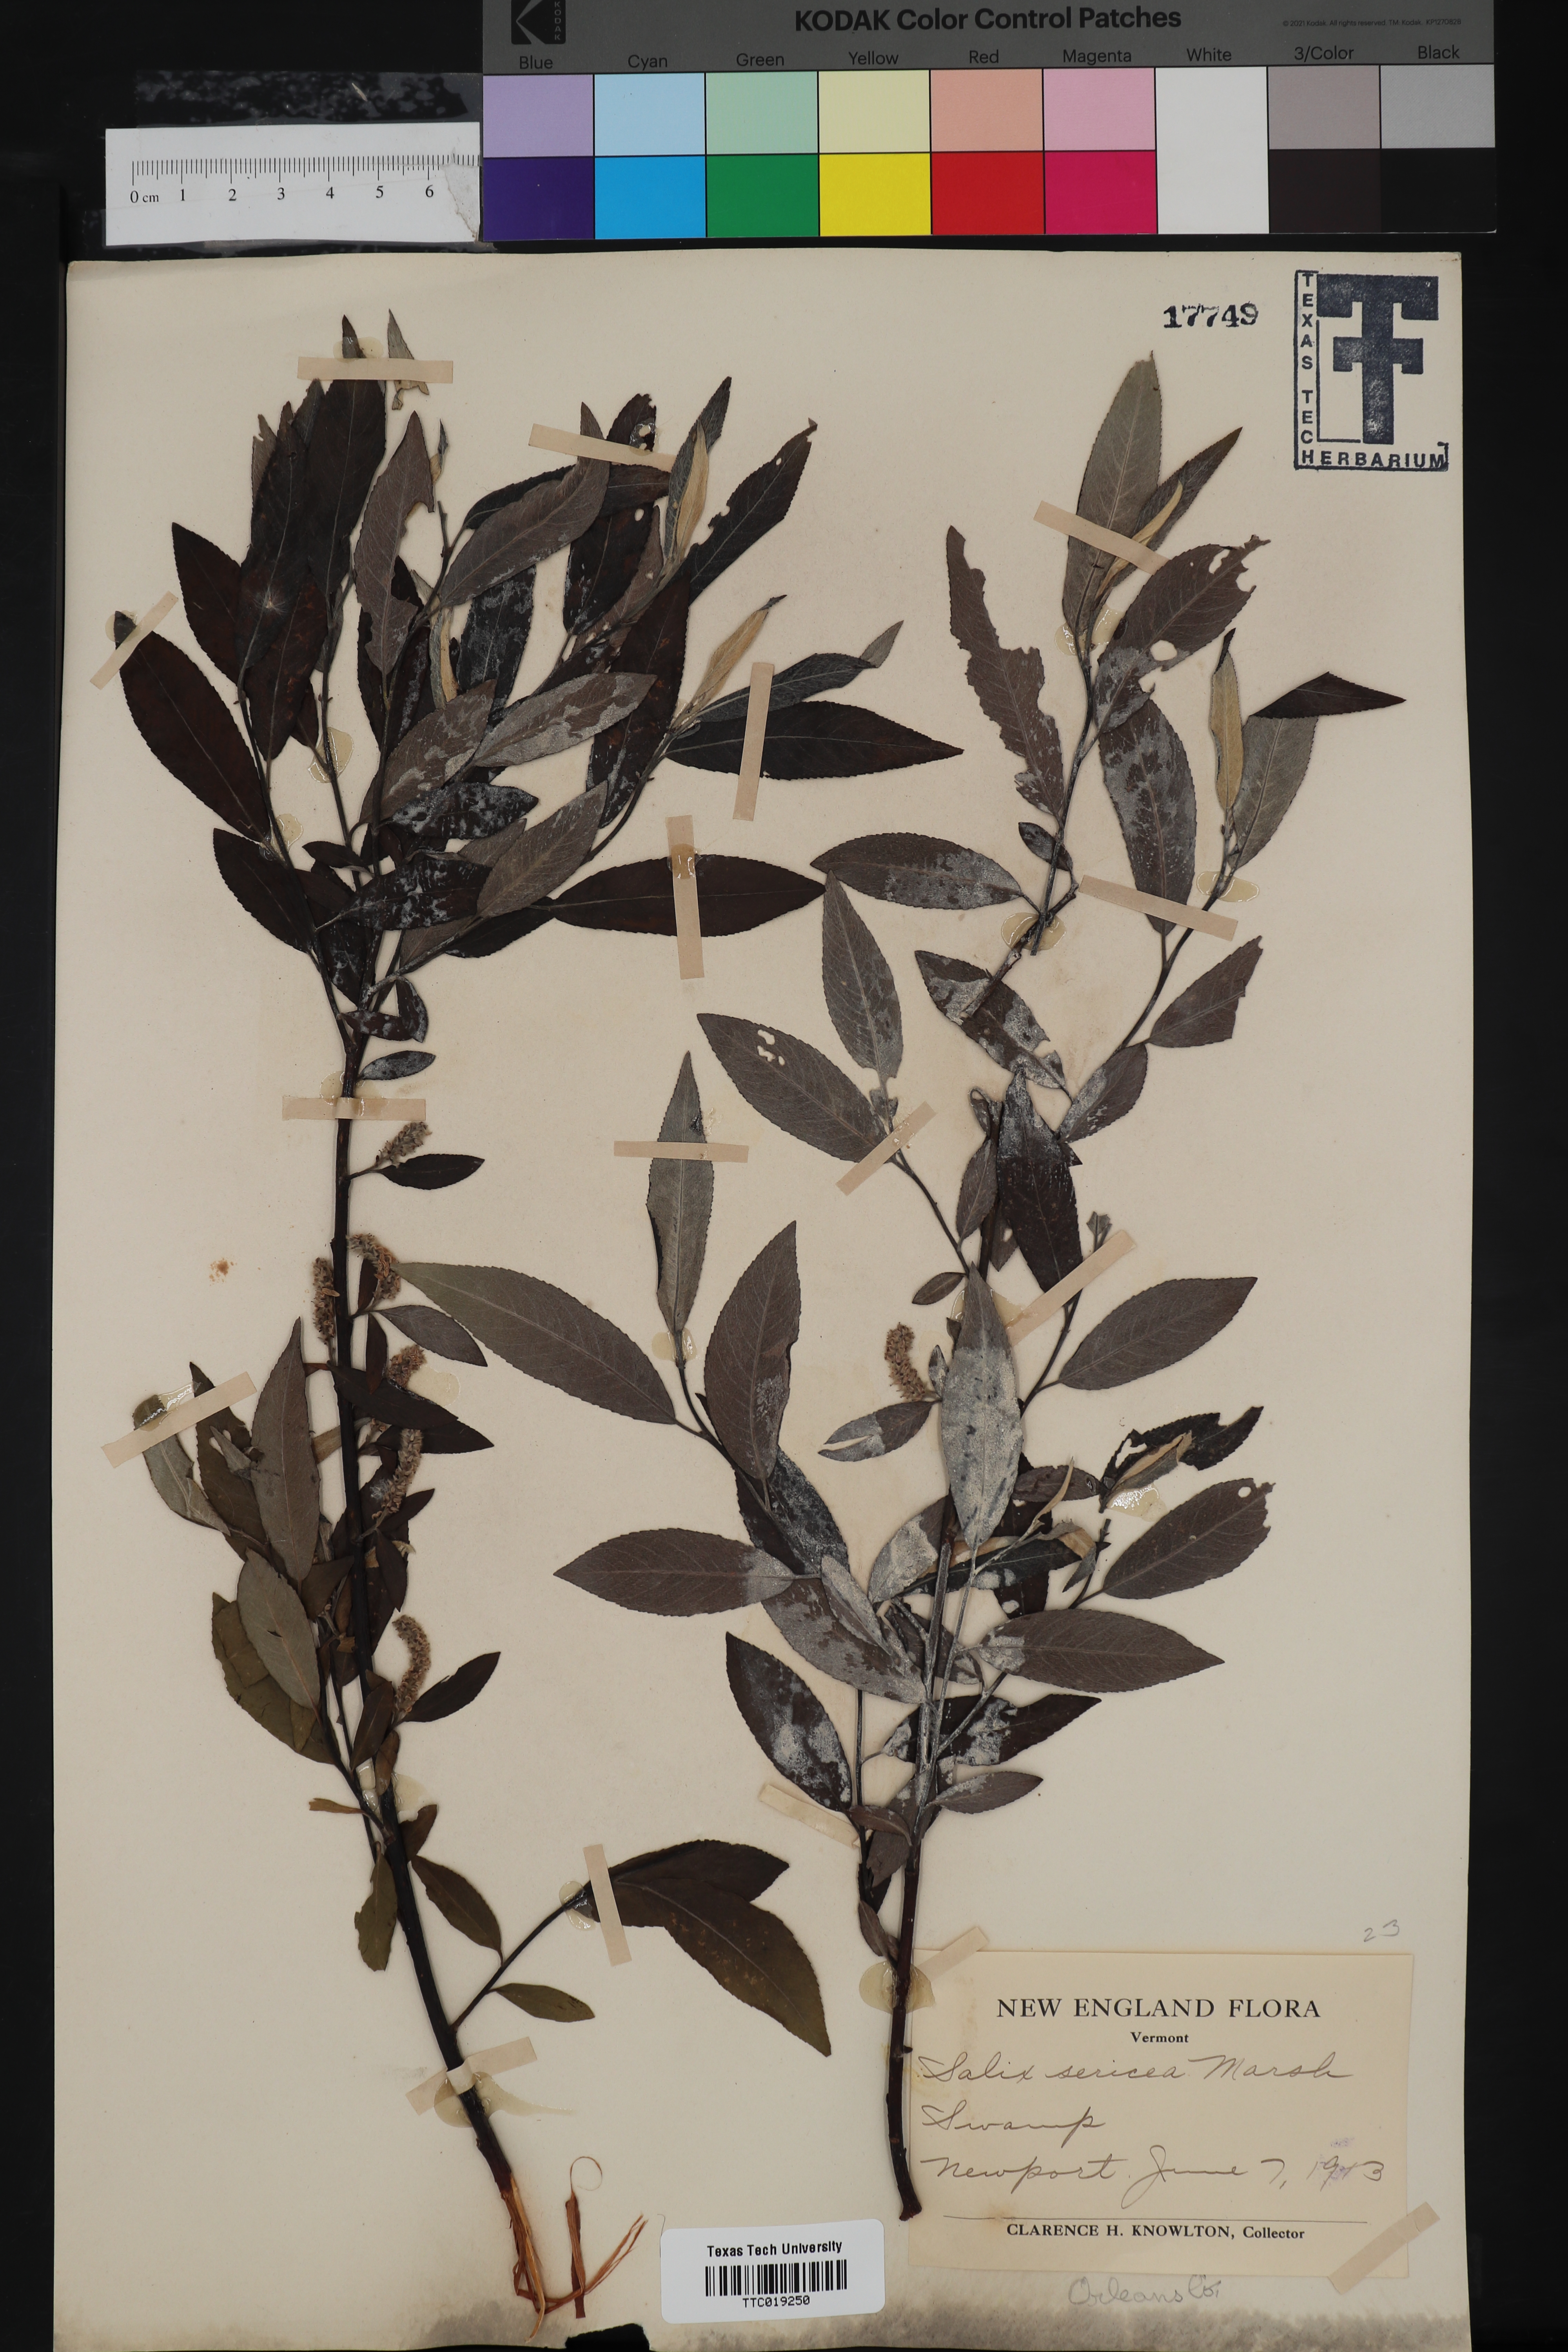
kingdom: Plantae
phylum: Tracheophyta
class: Magnoliopsida
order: Malpighiales
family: Salicaceae
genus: Salix
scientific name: Salix sericea
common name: Silky willow
